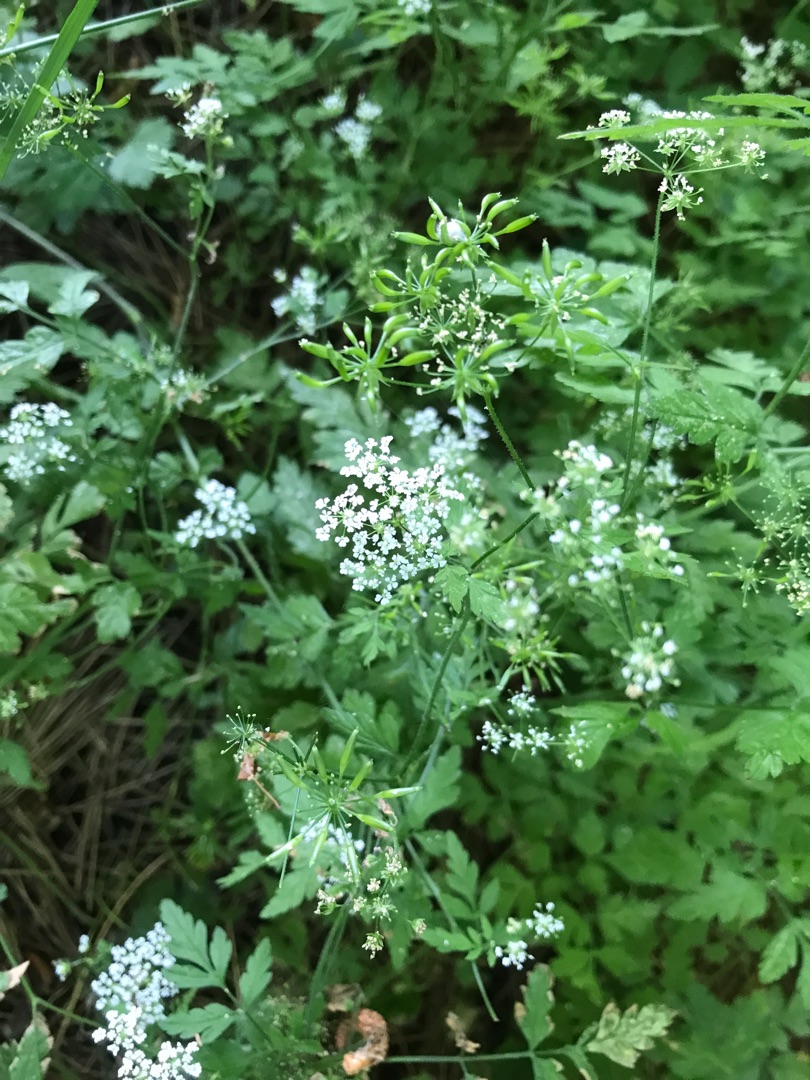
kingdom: Plantae
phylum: Tracheophyta
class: Magnoliopsida
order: Apiales
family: Apiaceae
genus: Chaerophyllum
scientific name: Chaerophyllum temulum
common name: Almindelig hulsvøb
